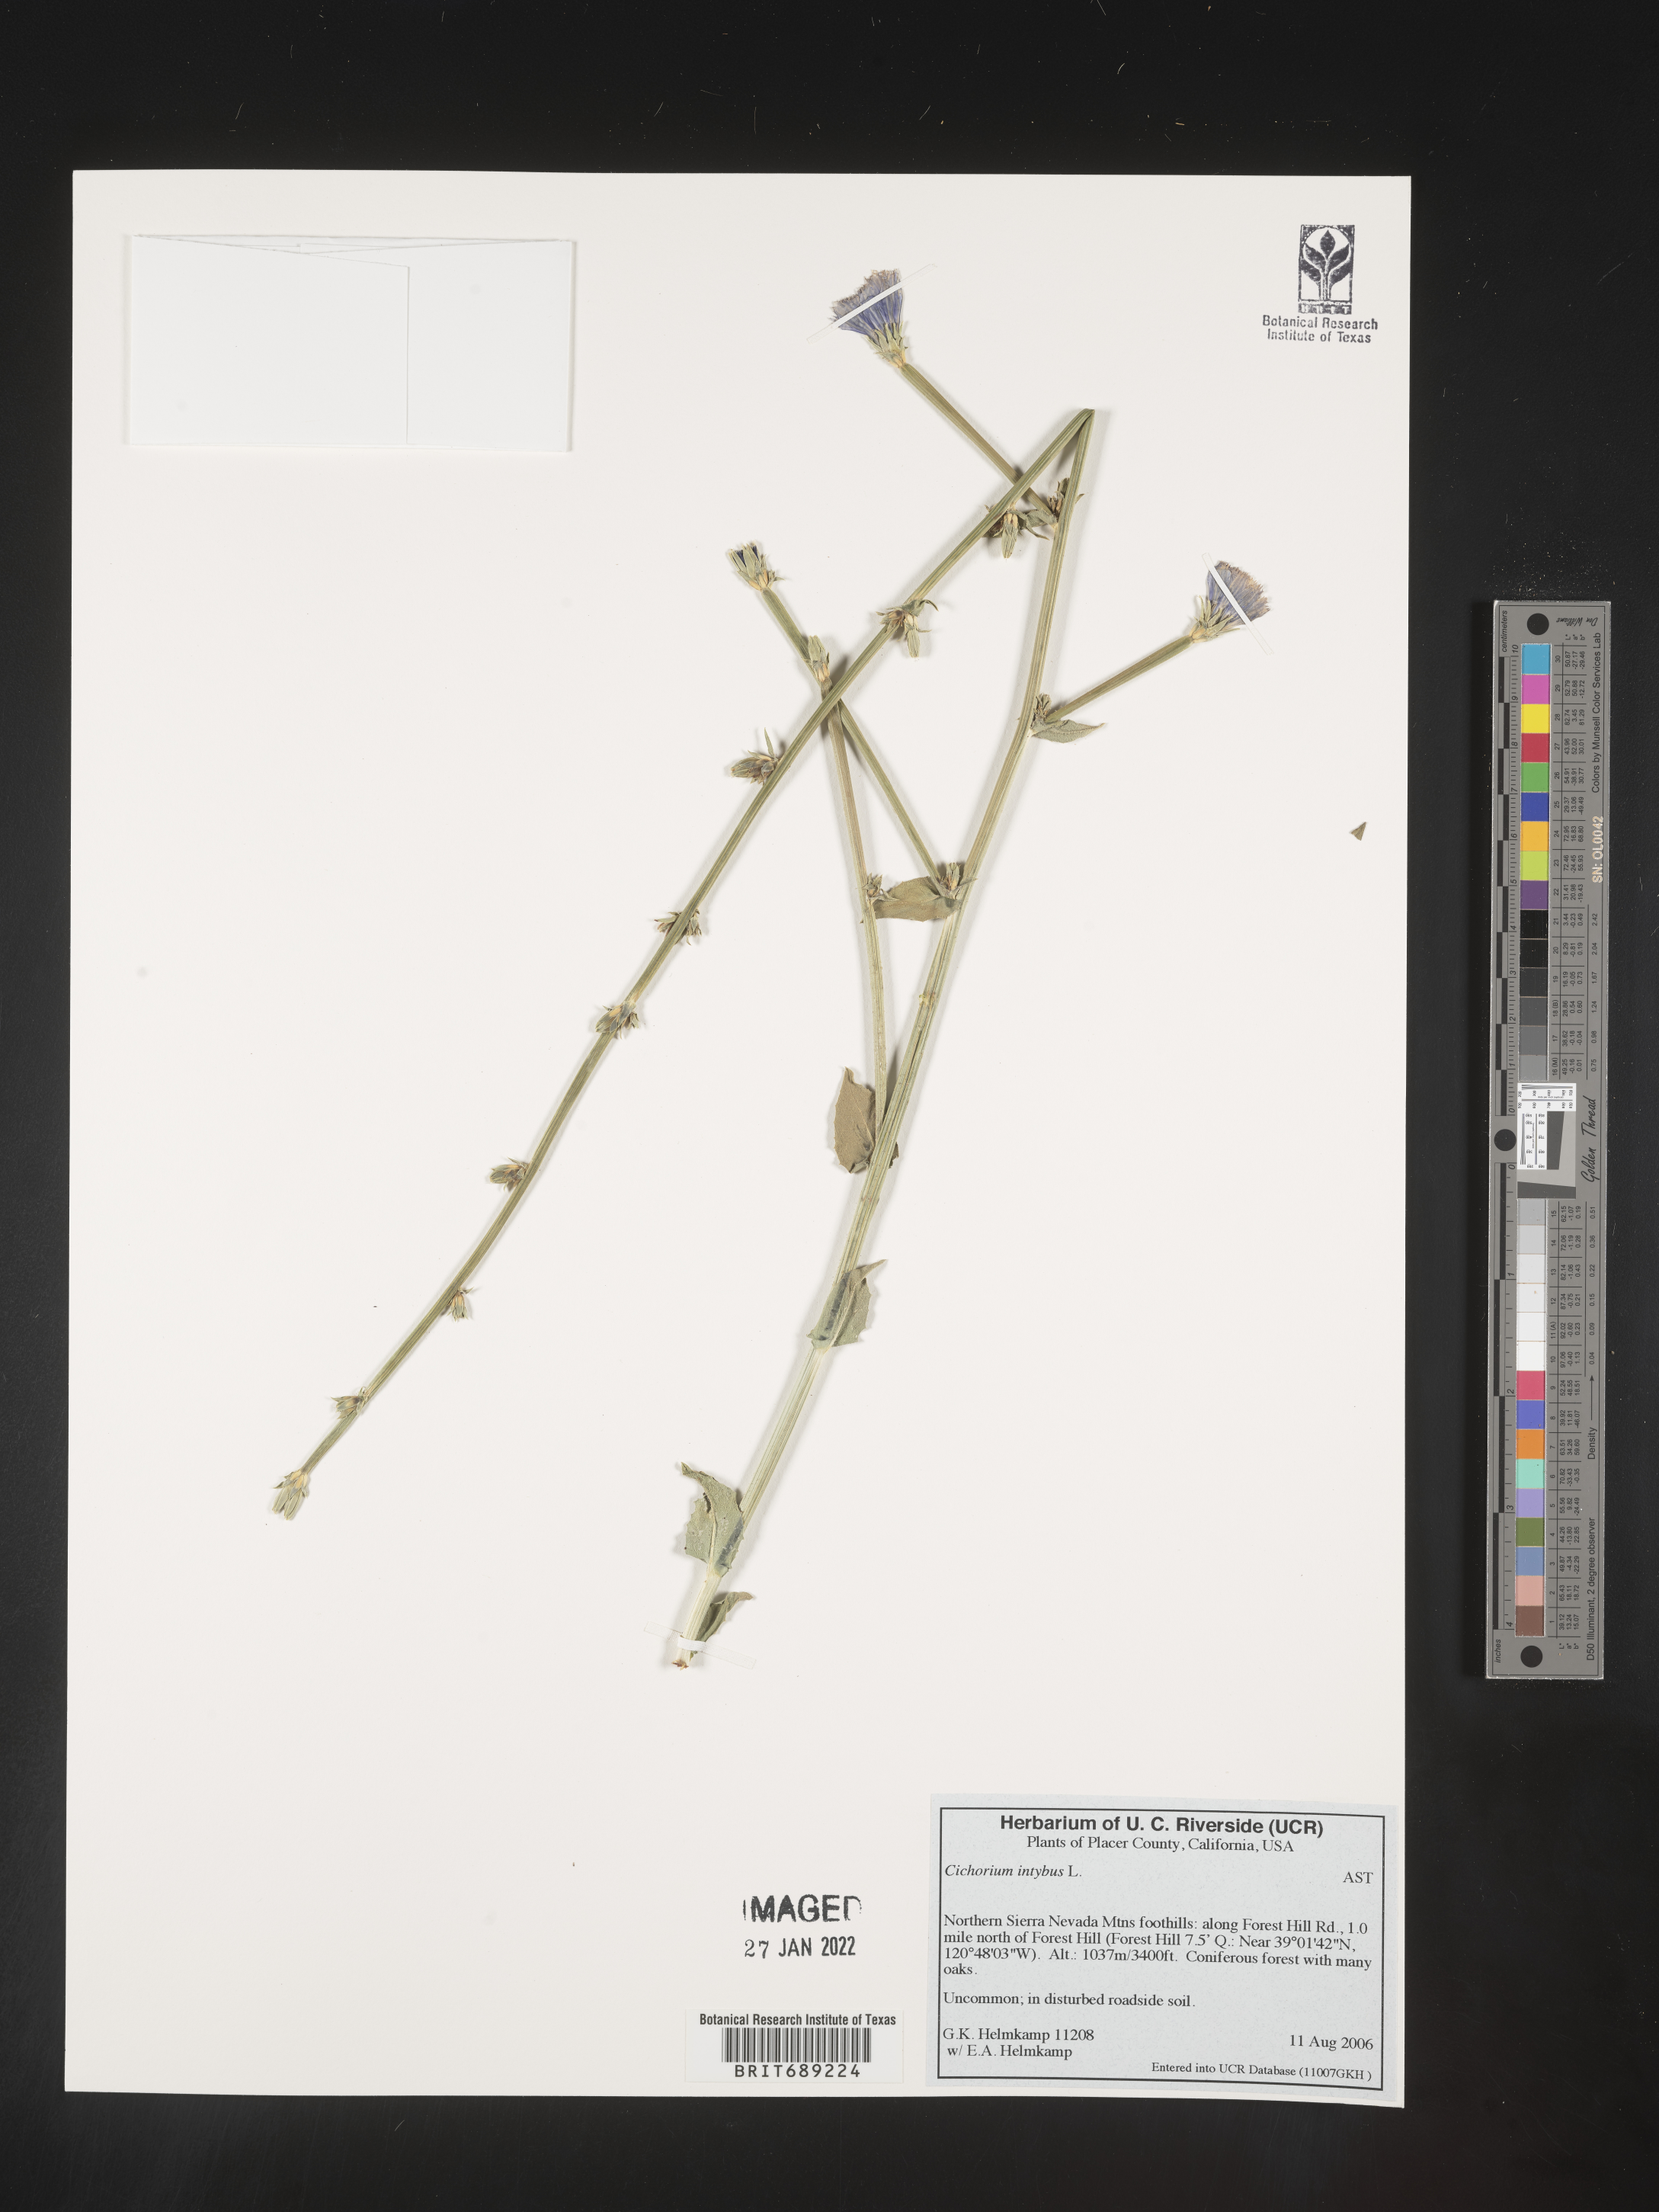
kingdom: Plantae
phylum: Tracheophyta
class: Magnoliopsida
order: Asterales
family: Asteraceae
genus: Cichorium
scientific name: Cichorium intybus
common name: Chicory
